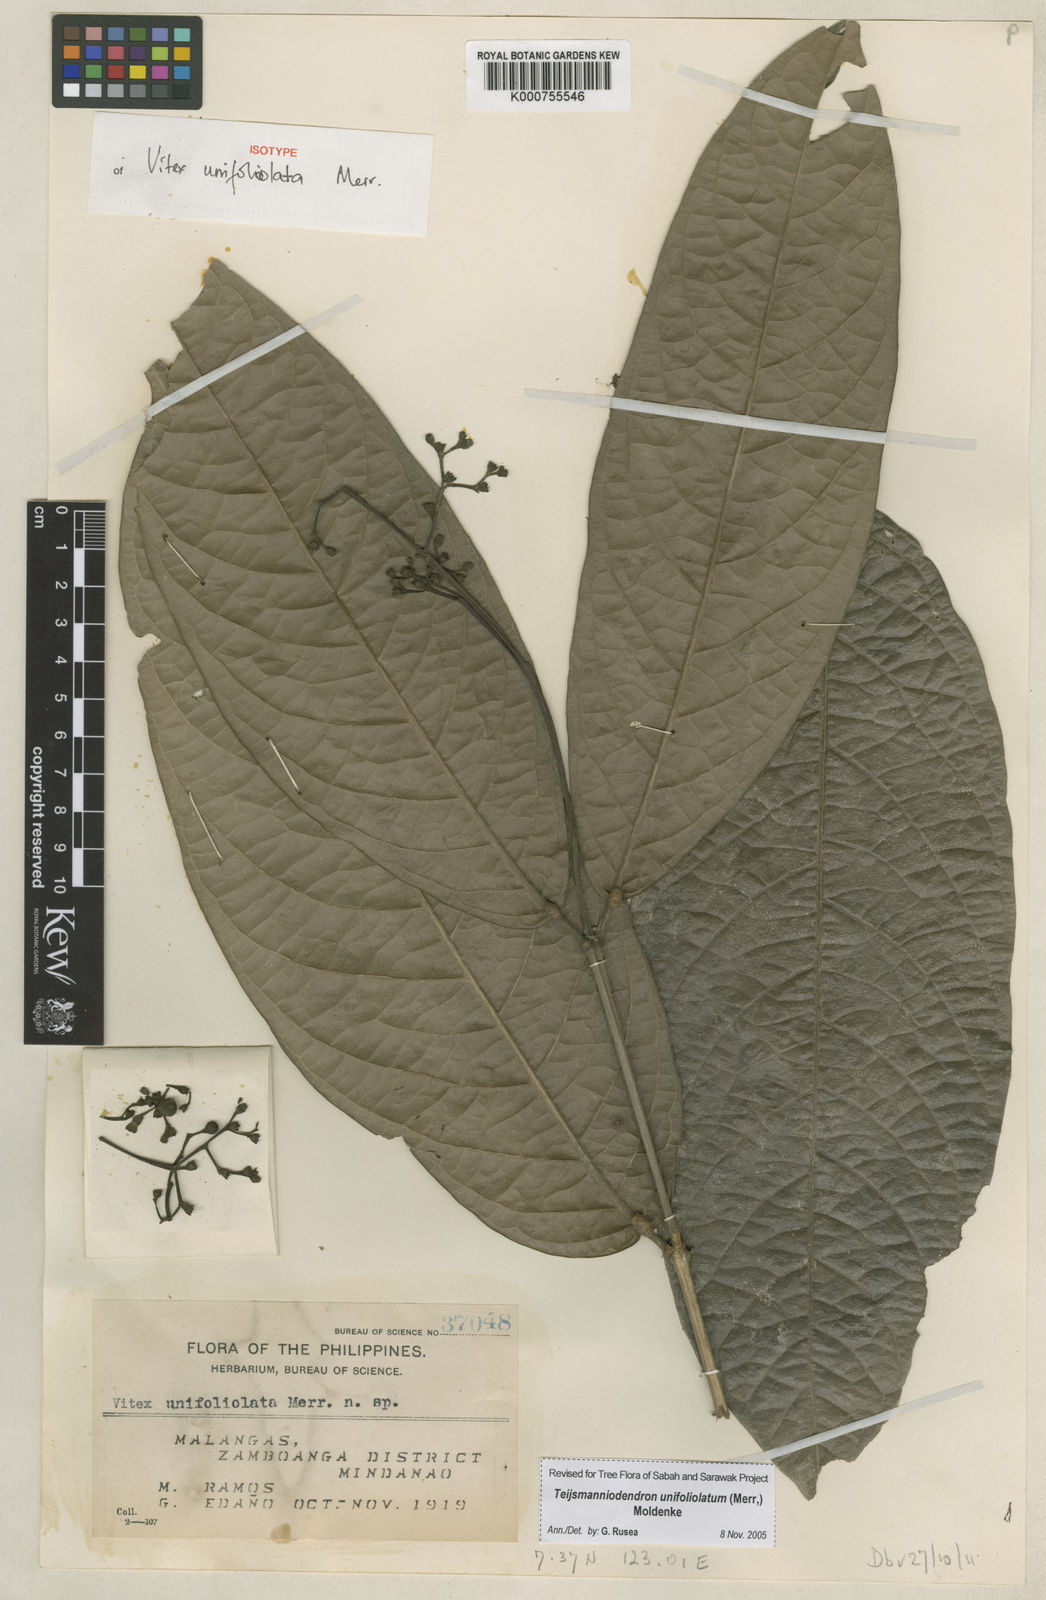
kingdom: Plantae
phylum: Tracheophyta
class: Magnoliopsida
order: Lamiales
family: Lamiaceae
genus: Teijsmanniodendron
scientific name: Teijsmanniodendron unifoliolatum
